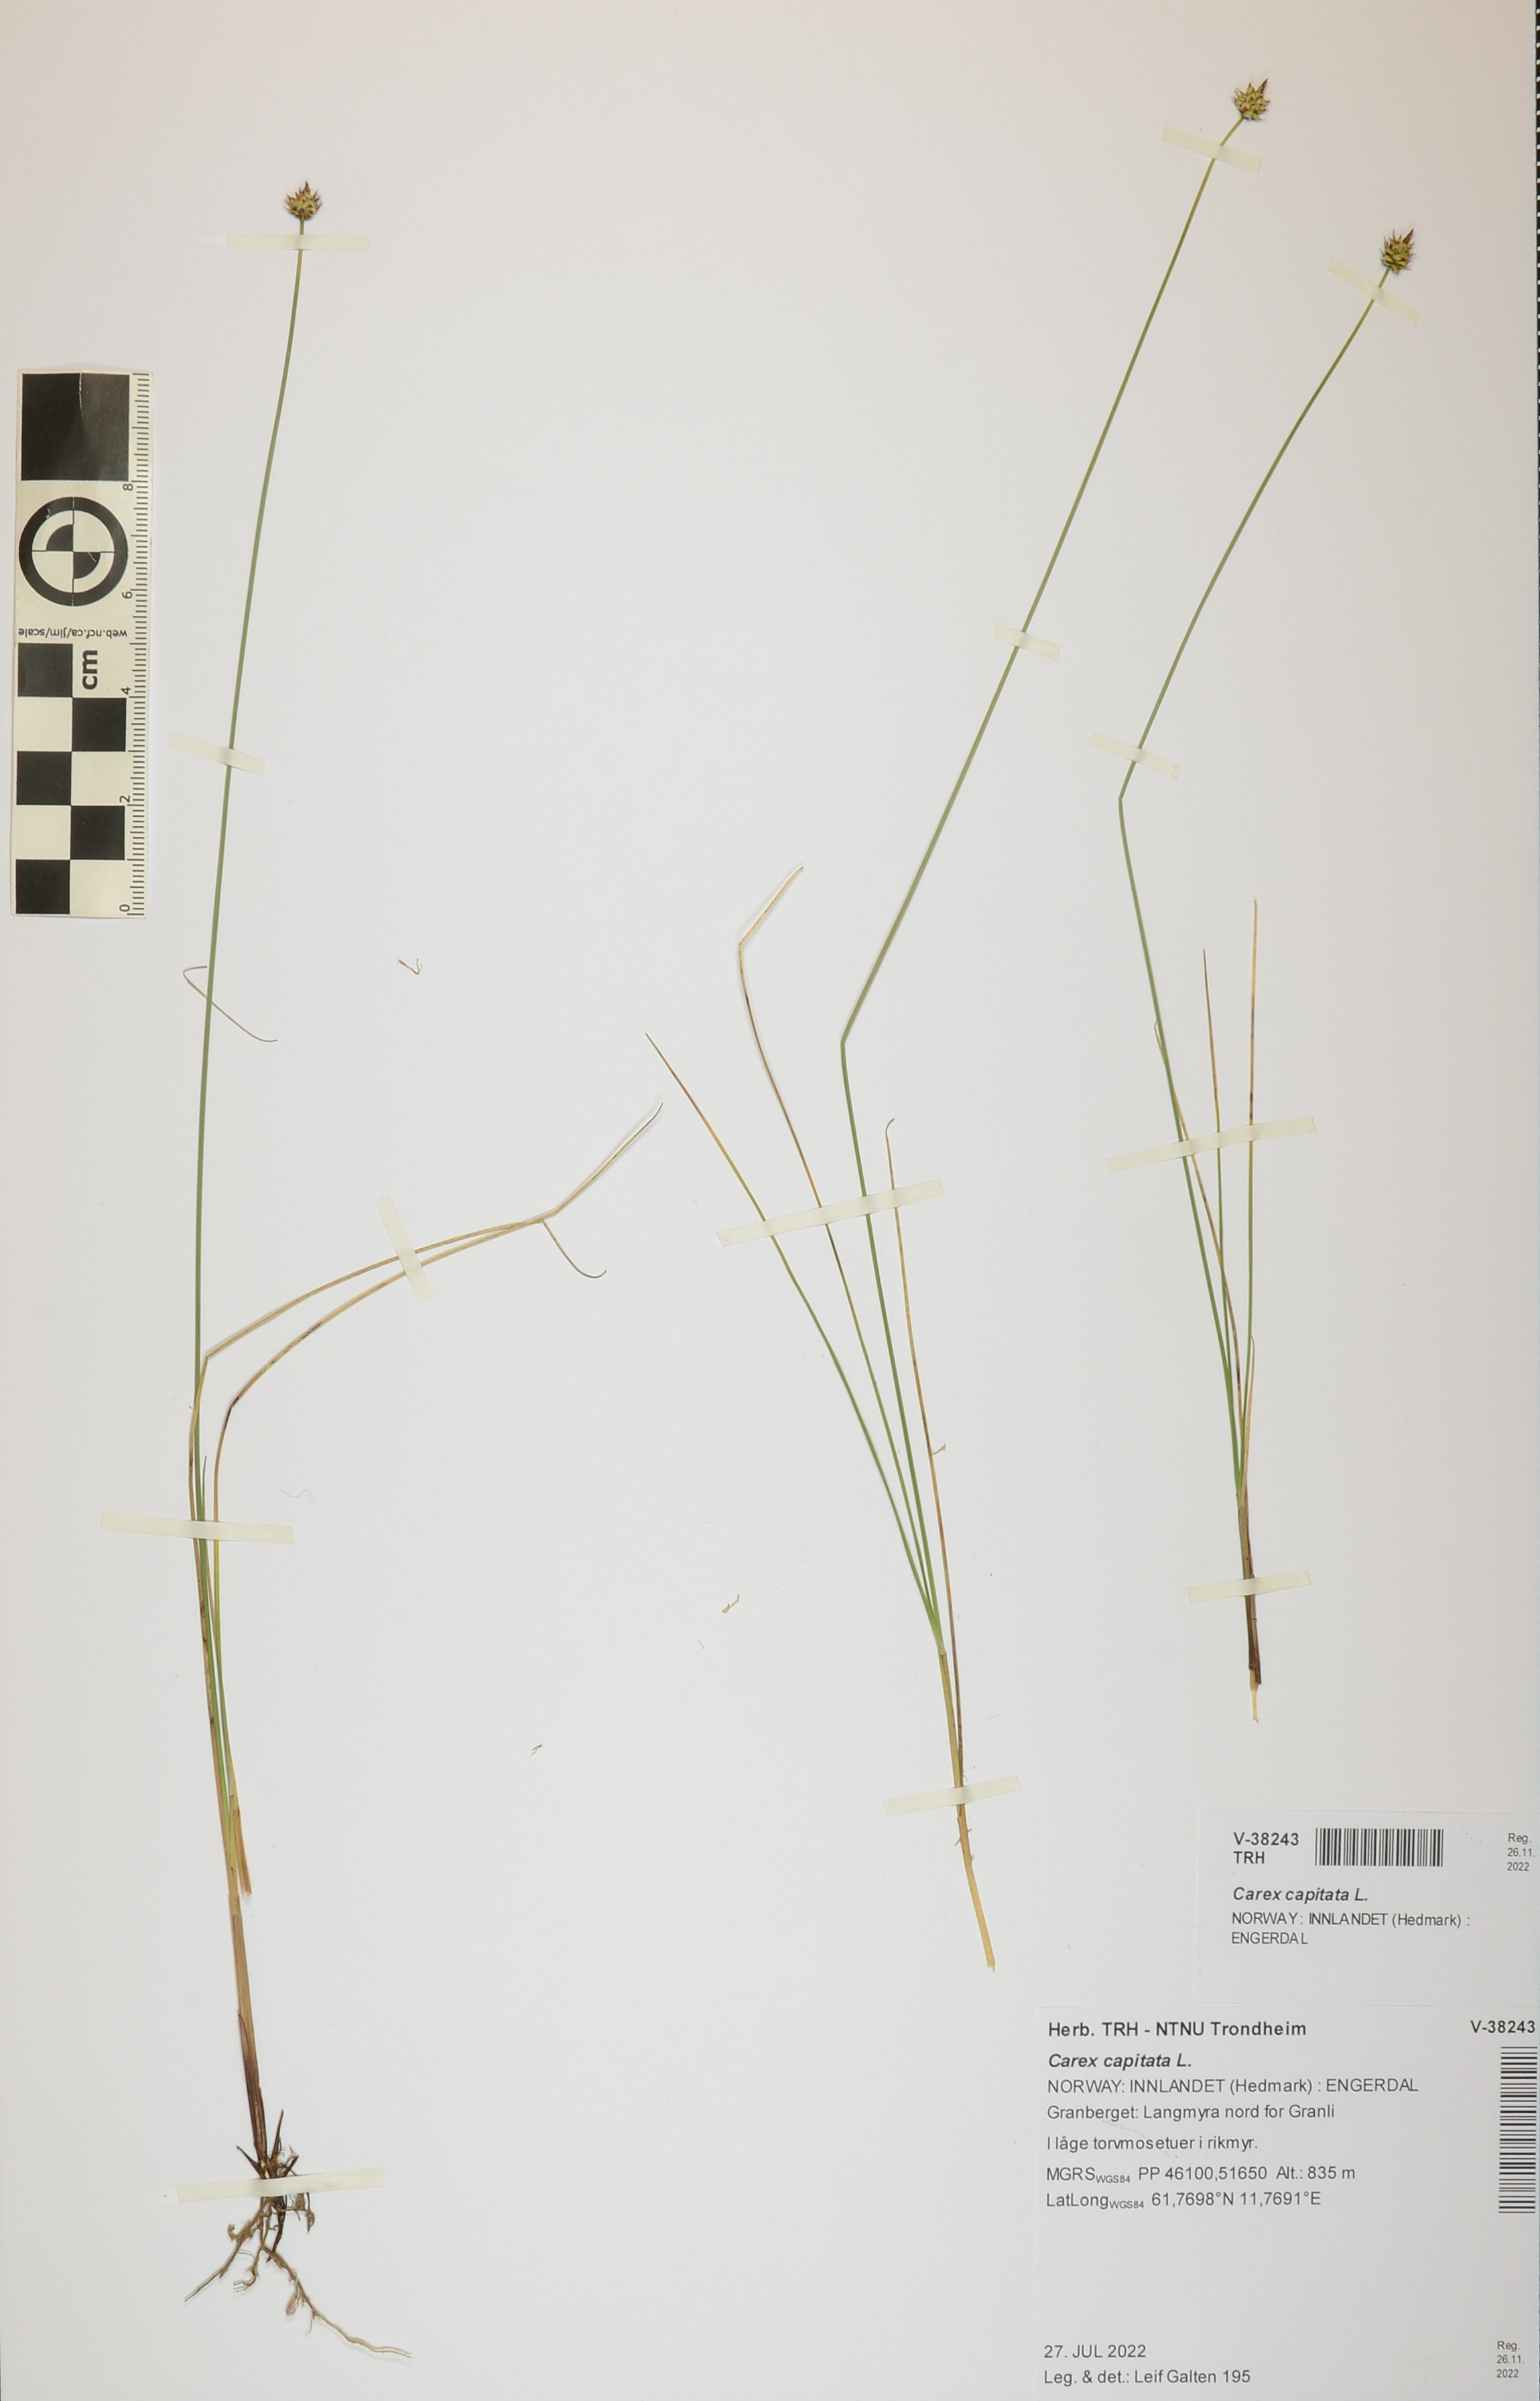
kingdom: Plantae
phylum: Tracheophyta
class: Liliopsida
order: Poales
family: Cyperaceae
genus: Carex
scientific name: Carex capitata
